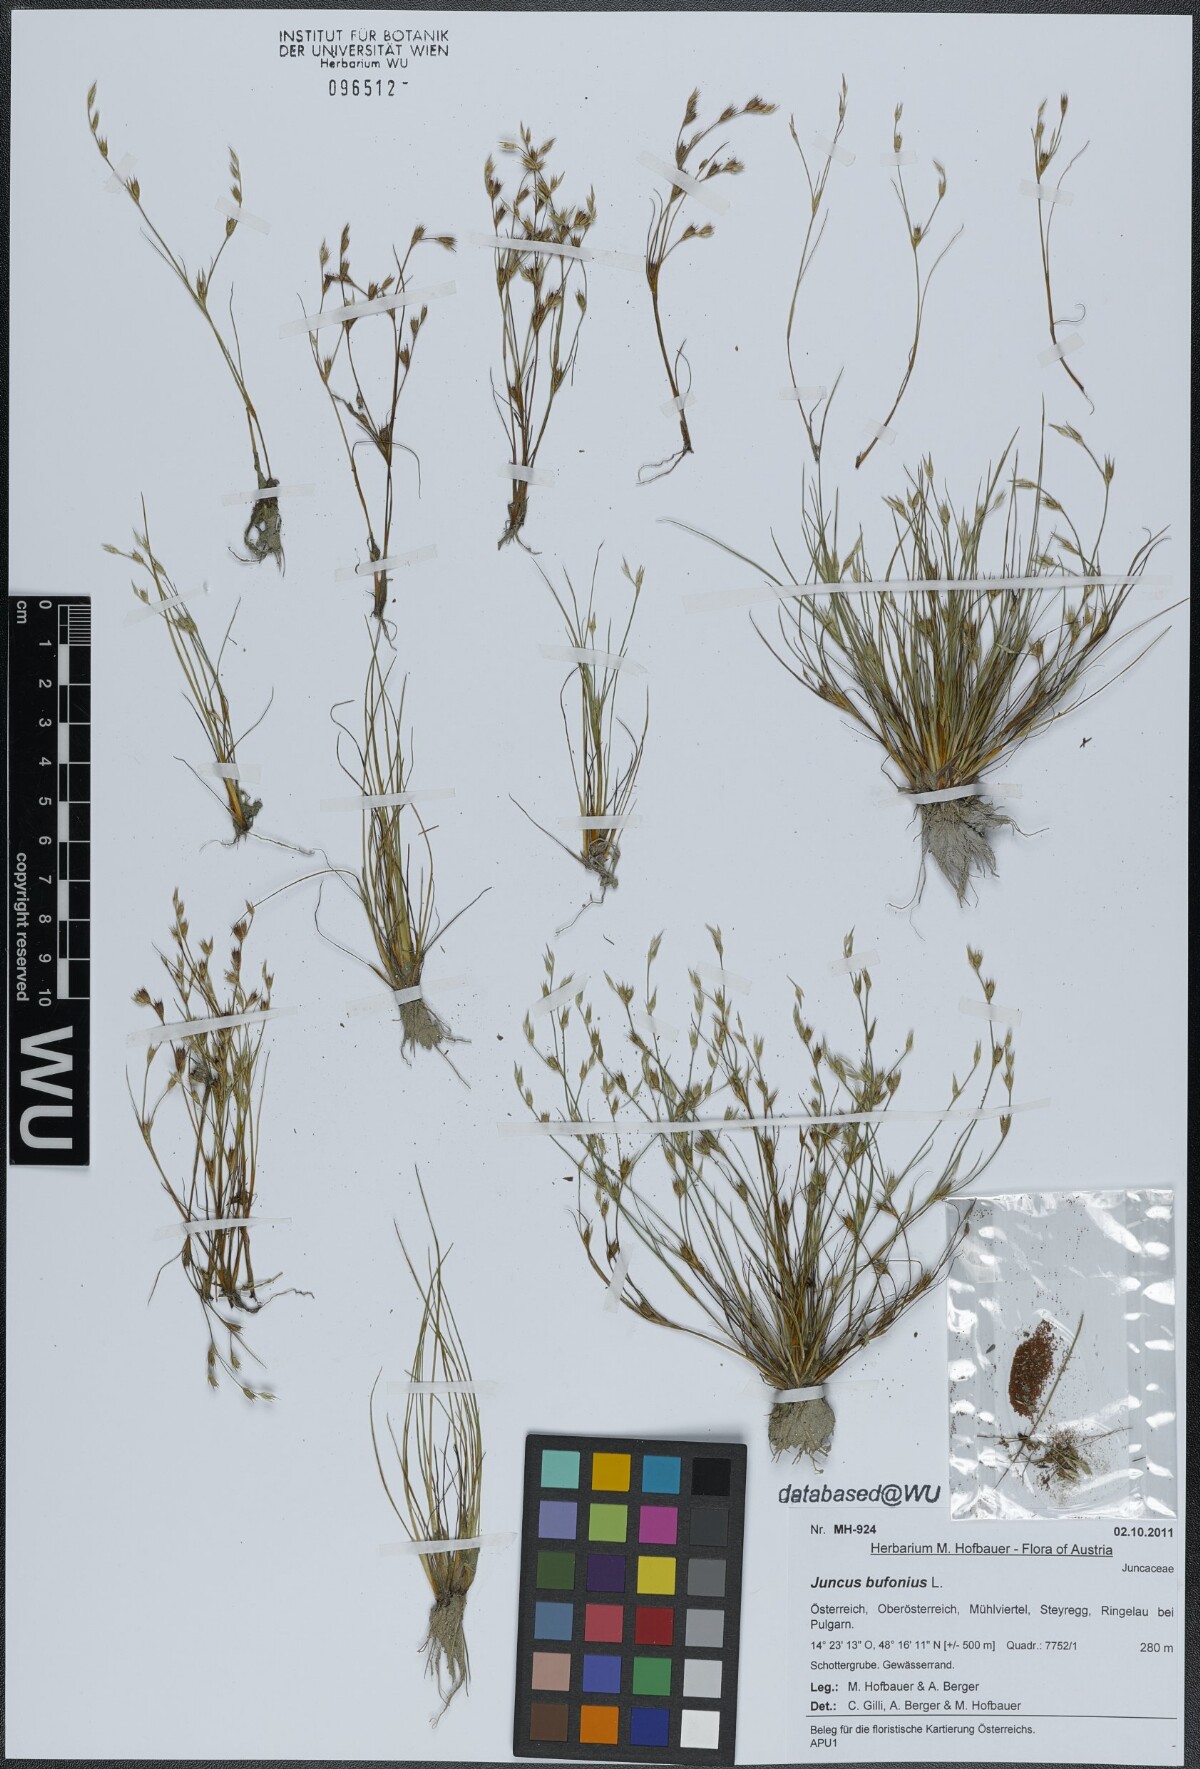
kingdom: Plantae
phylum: Tracheophyta
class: Liliopsida
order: Poales
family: Juncaceae
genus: Juncus
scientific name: Juncus bufonius
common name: Toad rush
